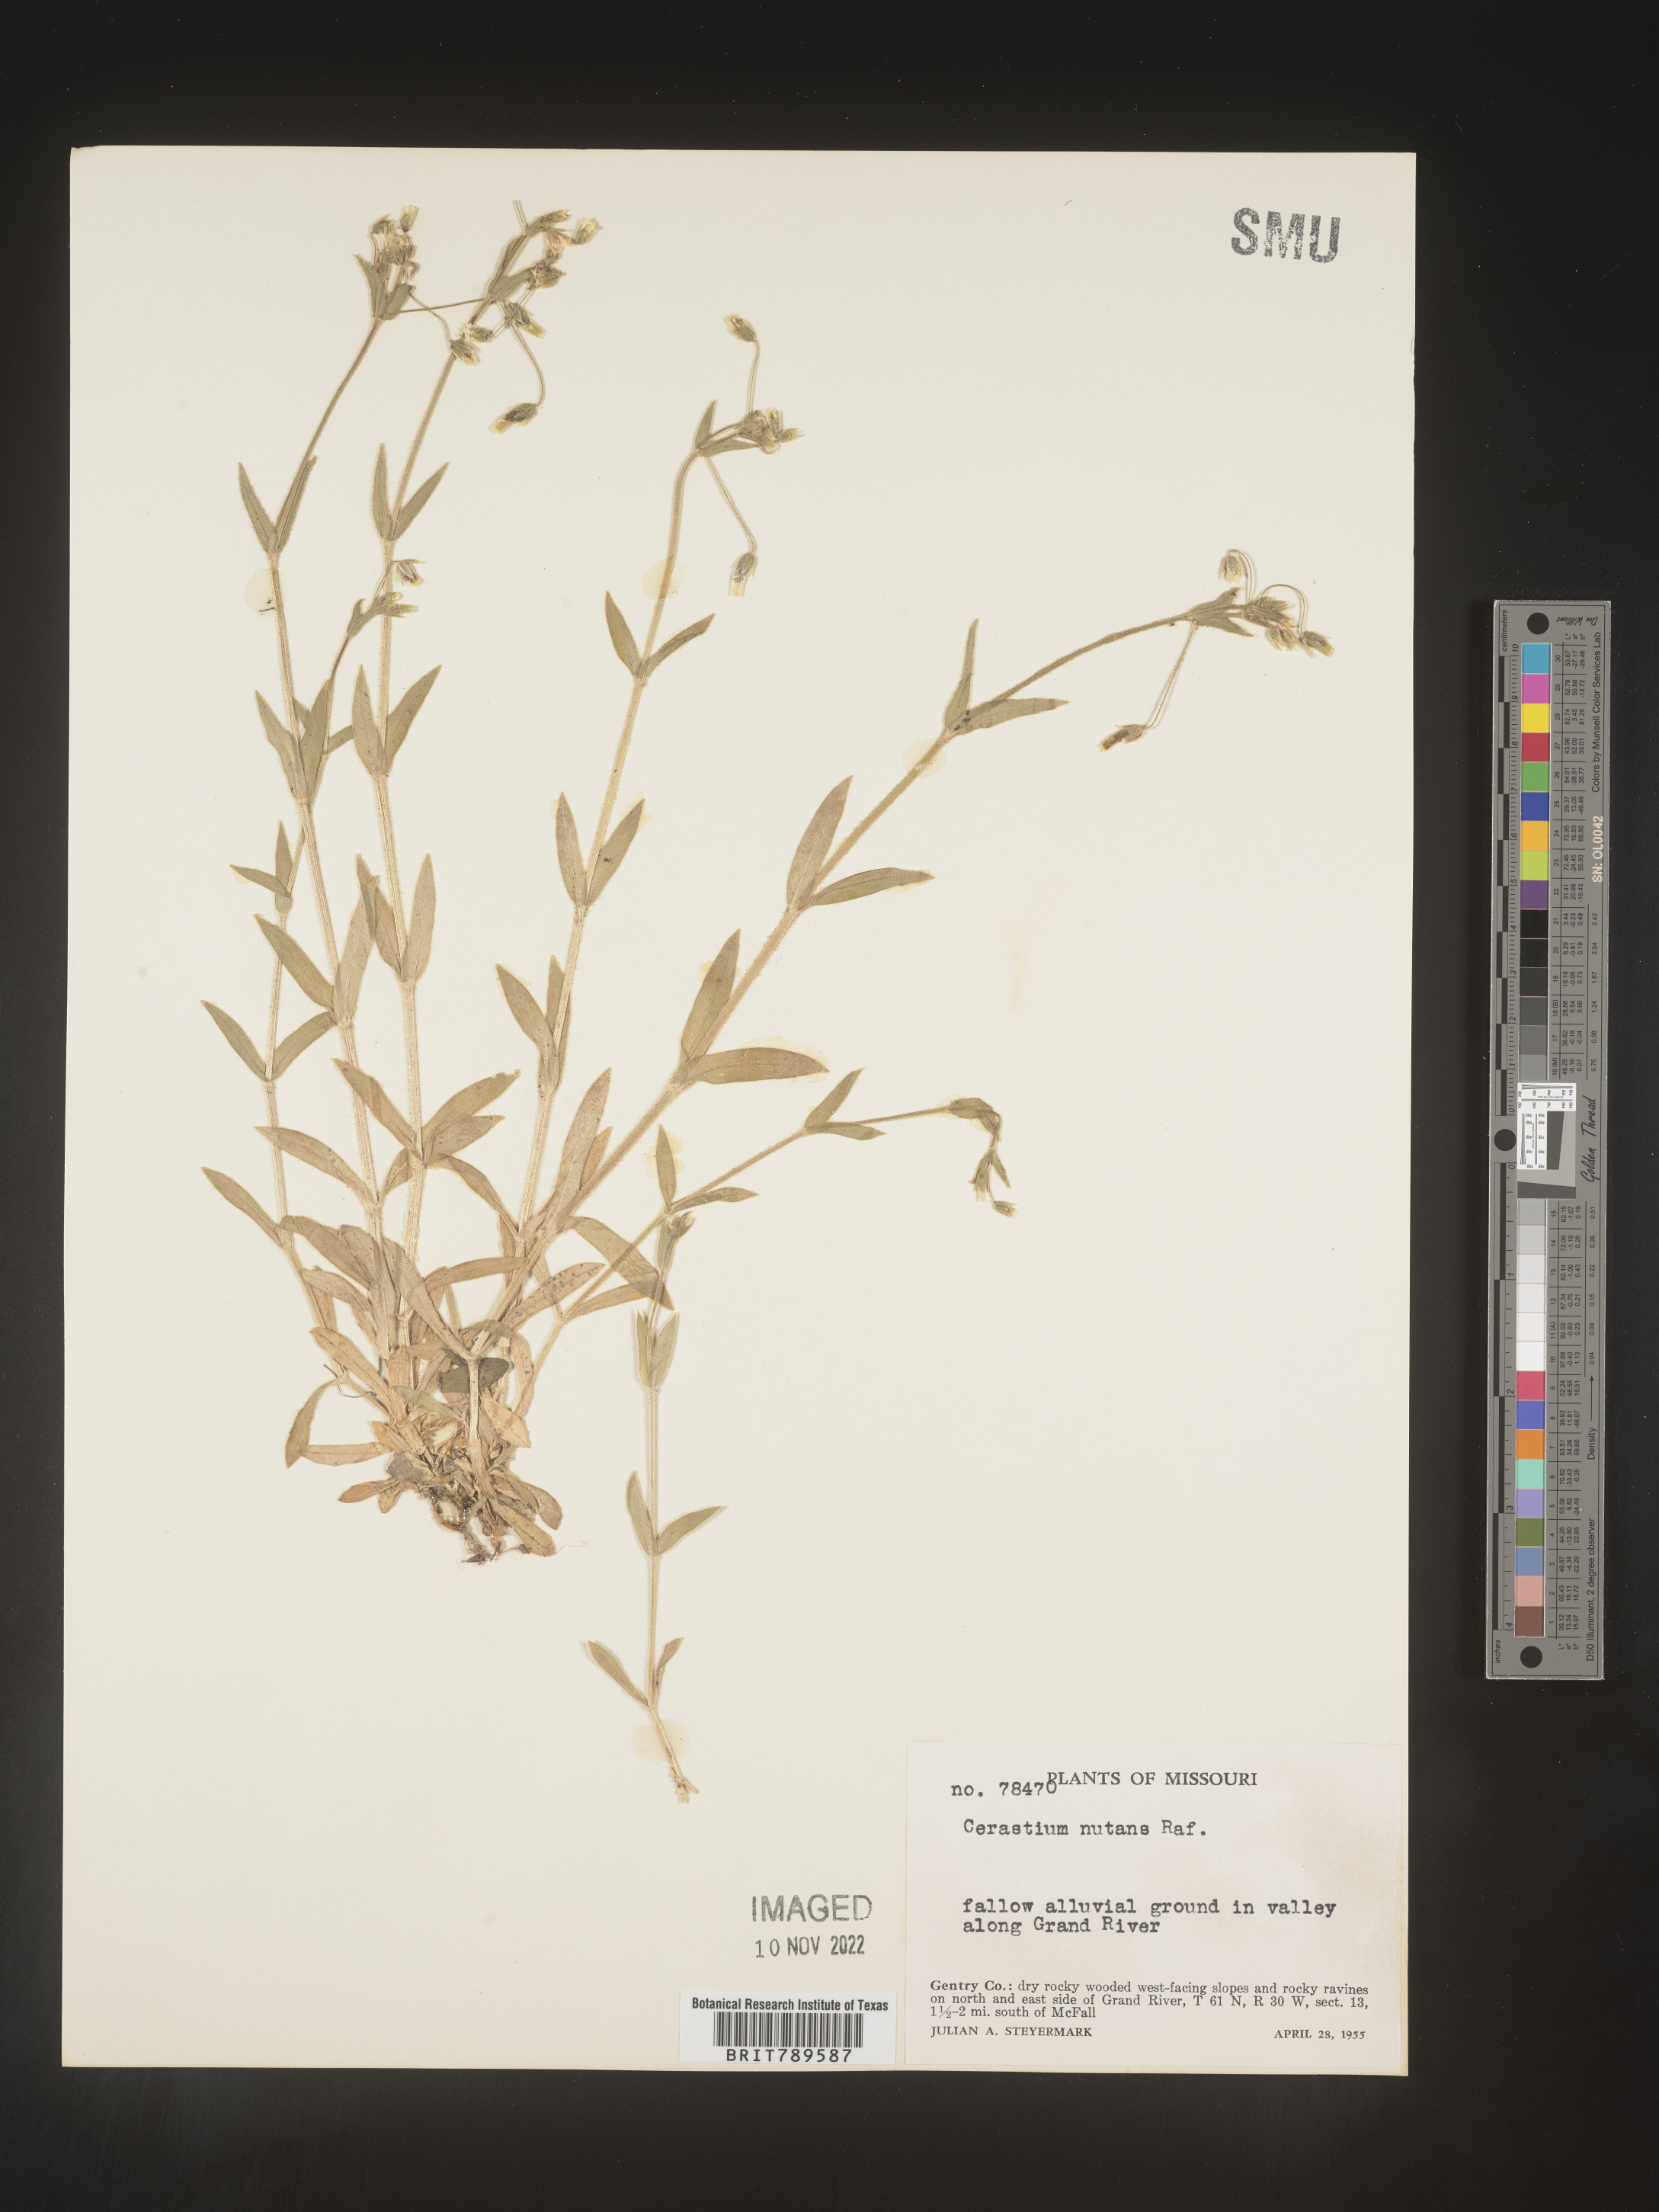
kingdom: Plantae
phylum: Tracheophyta
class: Magnoliopsida
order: Caryophyllales
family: Caryophyllaceae
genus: Cerastium
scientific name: Cerastium nutans
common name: Long-stalked chickweed
